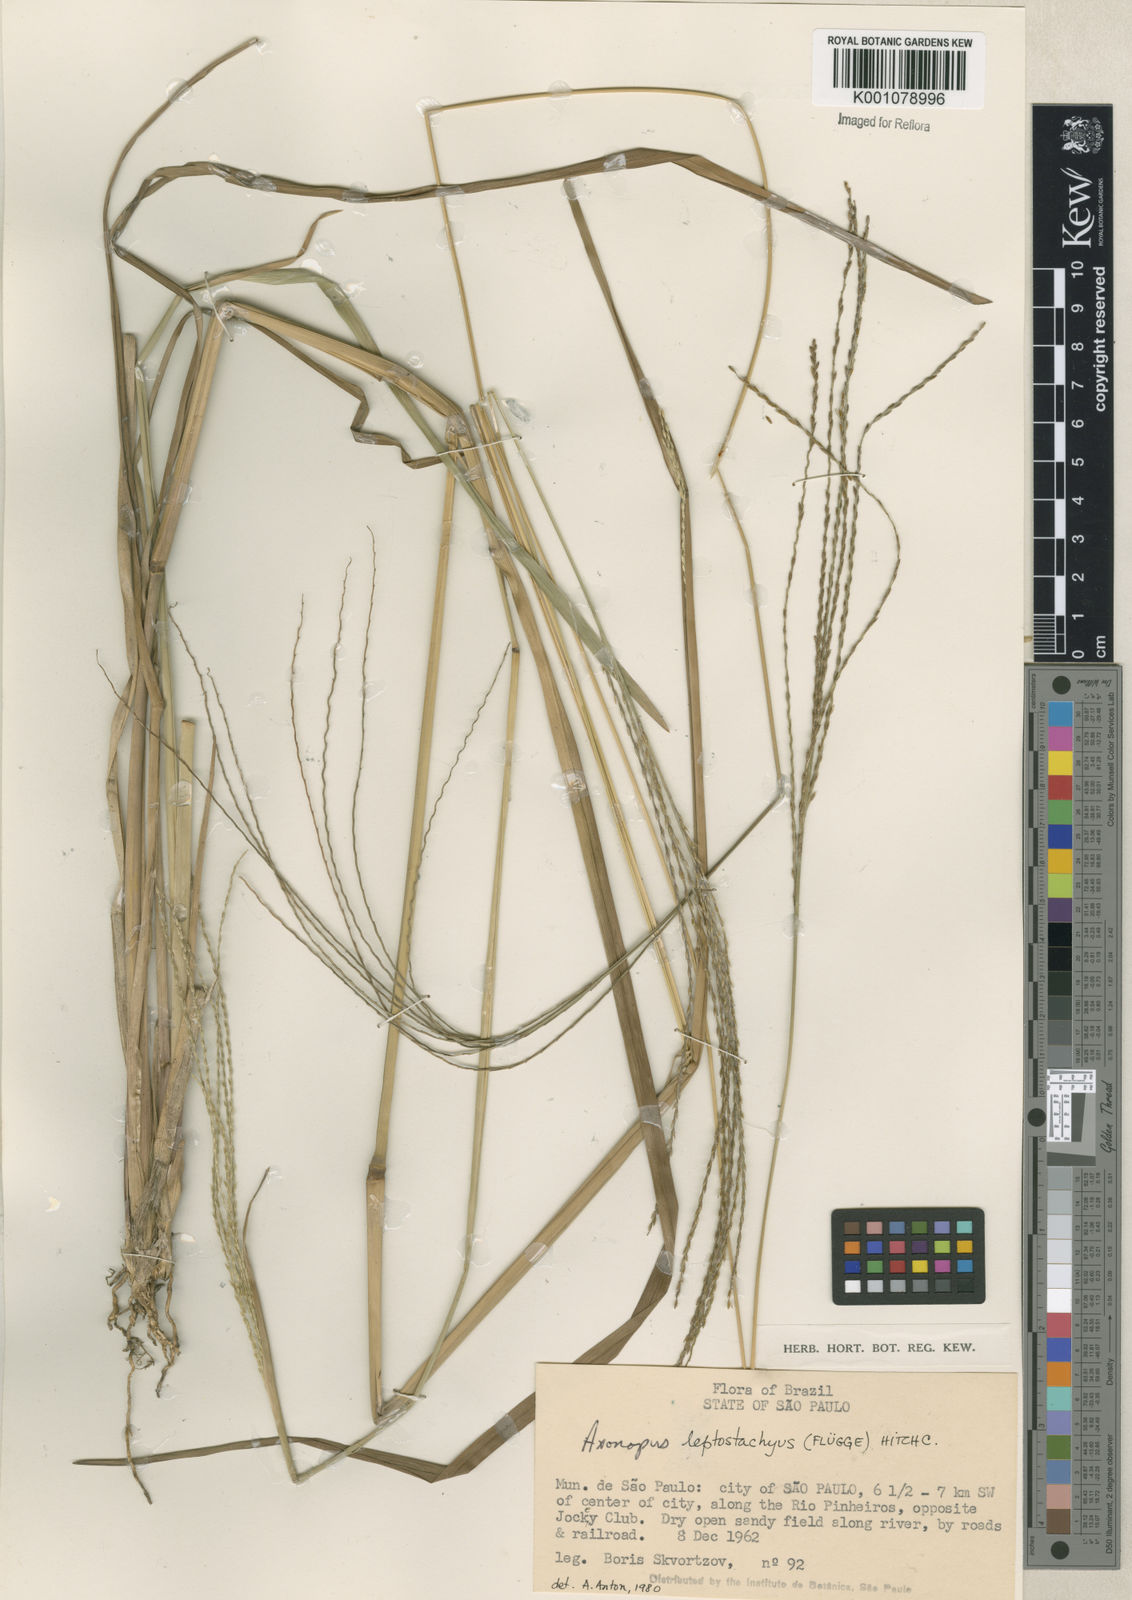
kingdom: Plantae
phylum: Tracheophyta
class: Liliopsida
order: Poales
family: Poaceae
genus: Axonopus
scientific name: Axonopus
